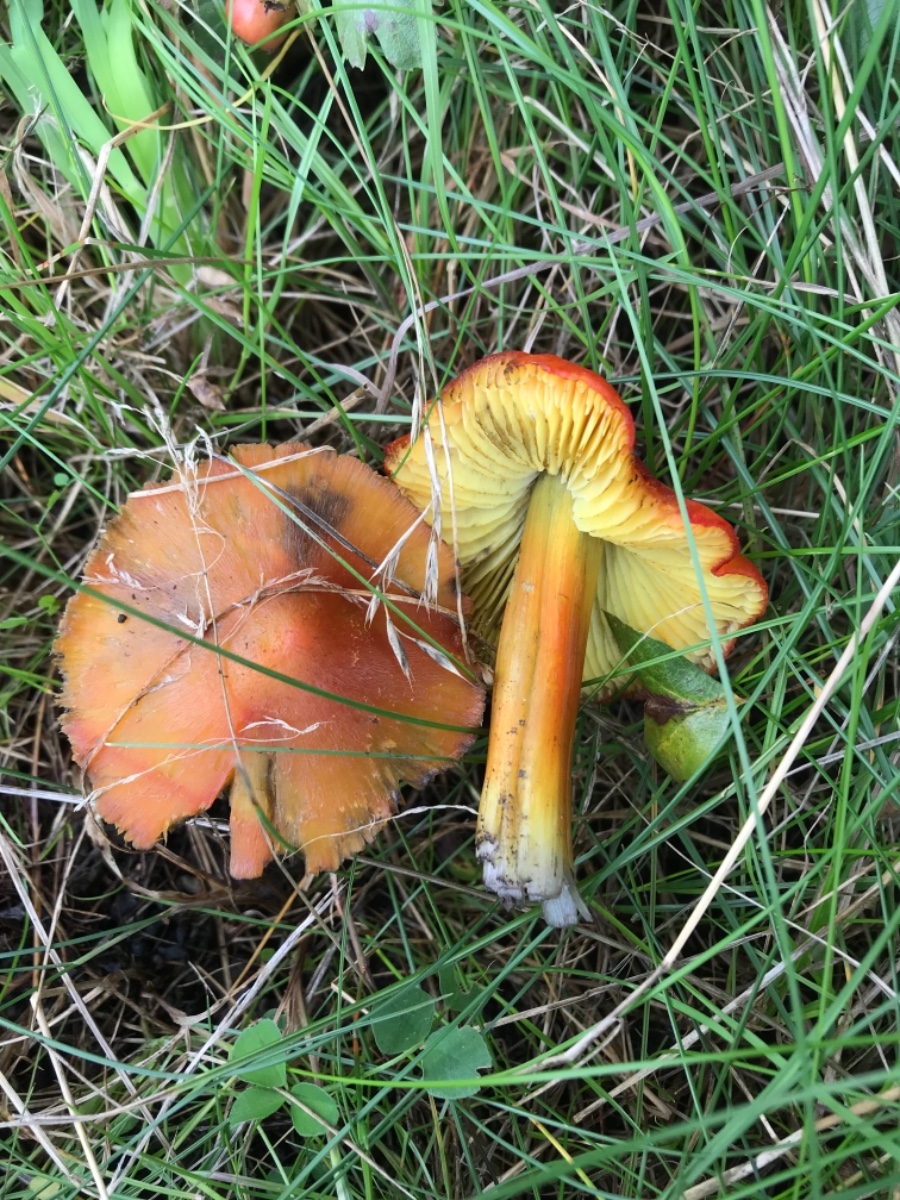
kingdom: Fungi
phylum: Basidiomycota
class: Agaricomycetes
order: Agaricales
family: Hygrophoraceae
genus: Hygrocybe
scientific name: Hygrocybe conica
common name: kegle-vokshat
